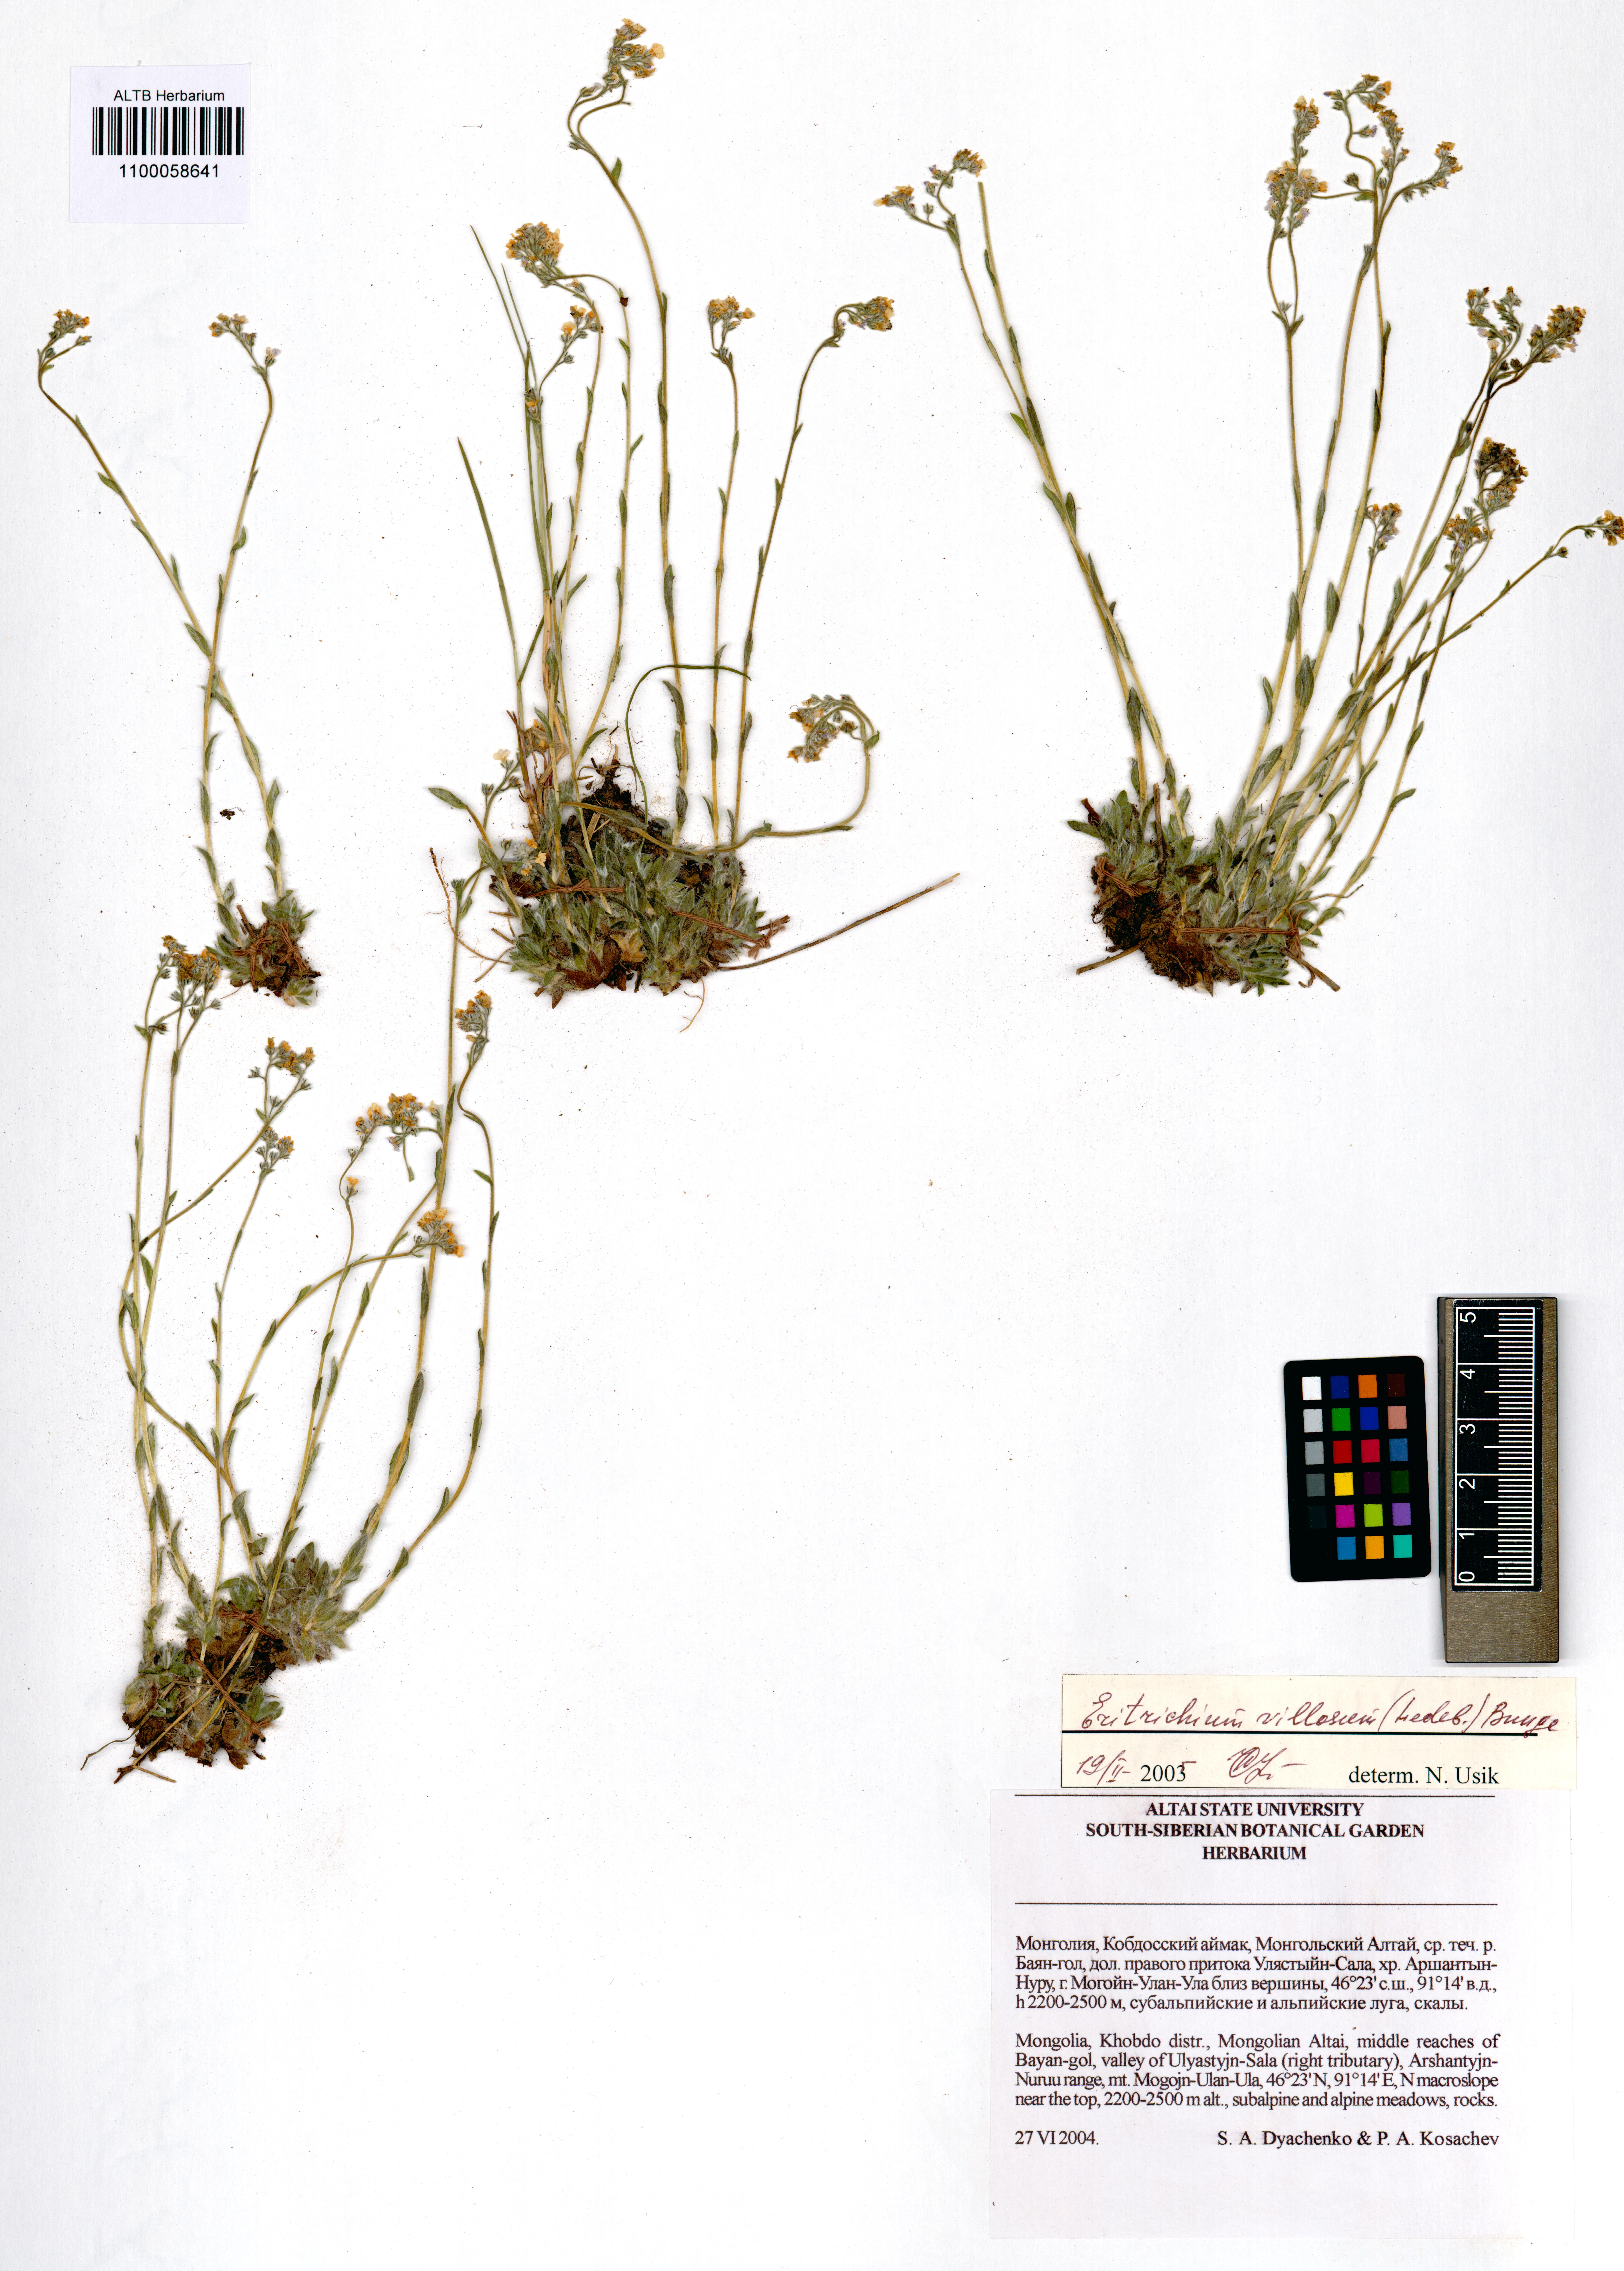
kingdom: Plantae
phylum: Tracheophyta
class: Magnoliopsida
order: Boraginales
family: Boraginaceae
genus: Eritrichium
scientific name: Eritrichium villosum
